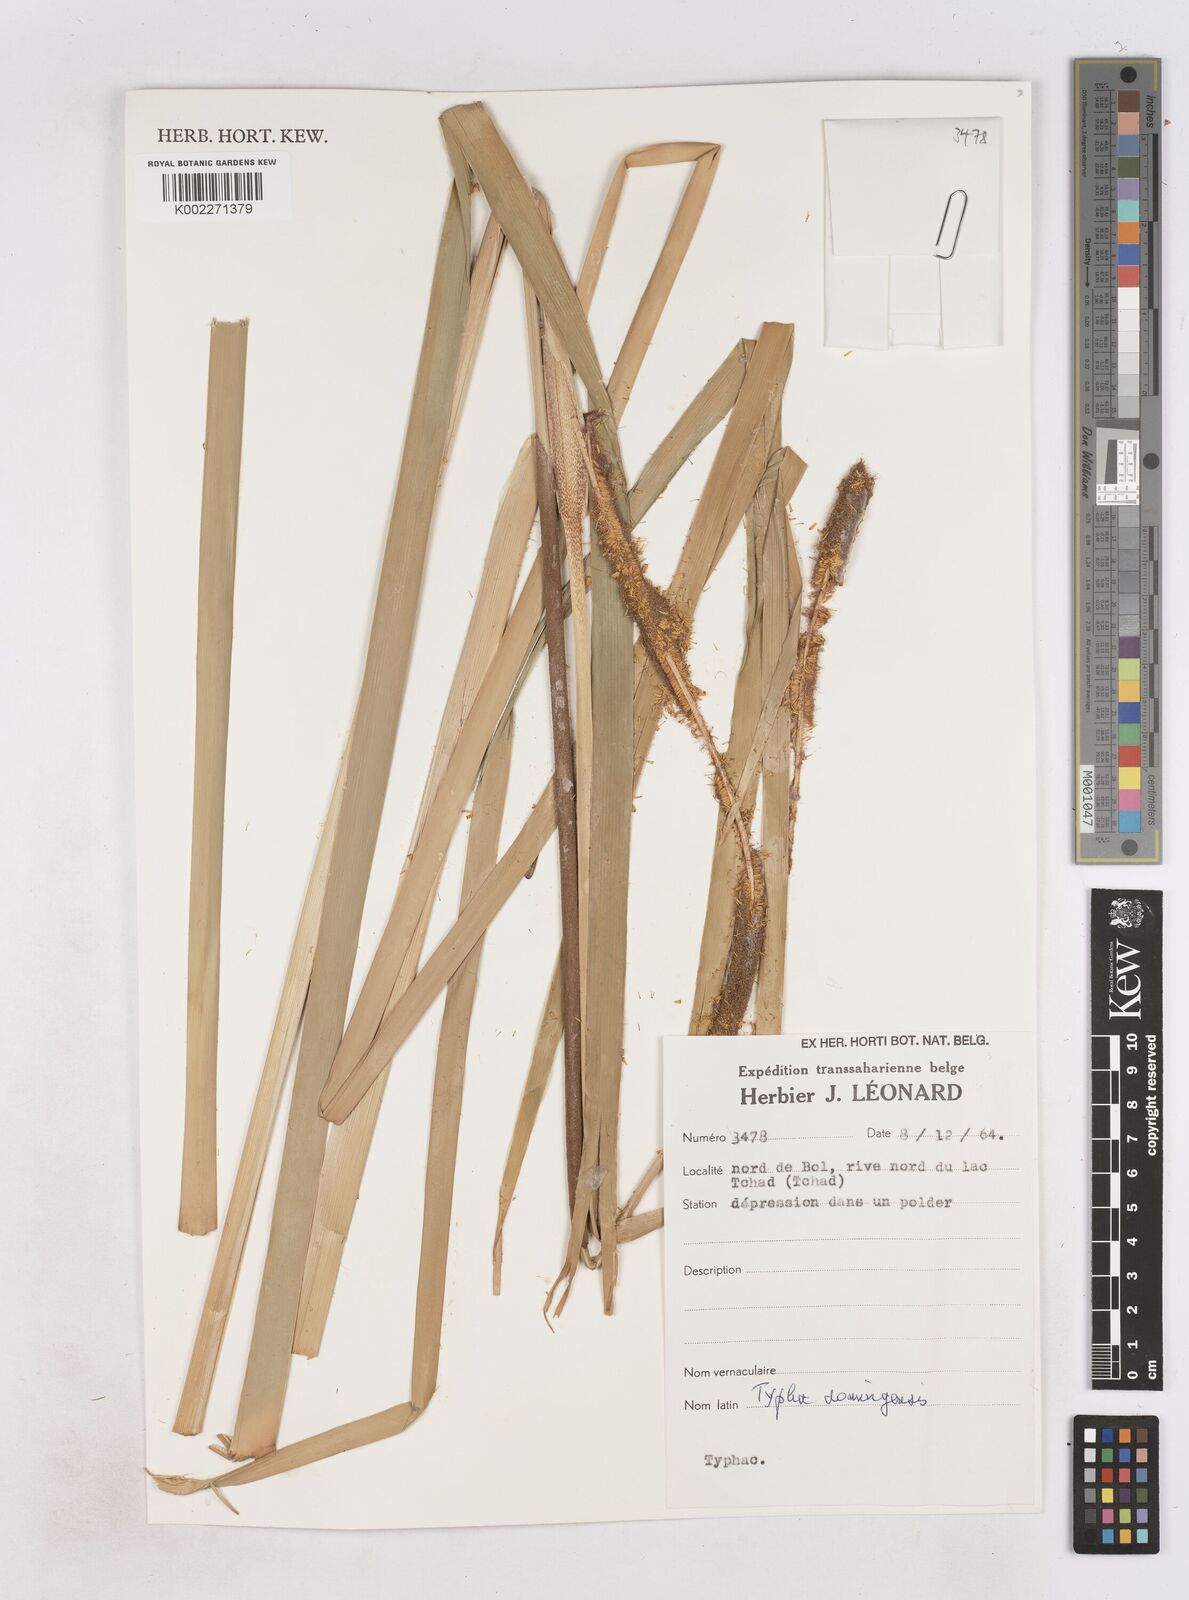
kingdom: Plantae
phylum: Tracheophyta
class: Liliopsida
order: Poales
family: Typhaceae
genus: Typha
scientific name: Typha domingensis
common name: Southern cattail
